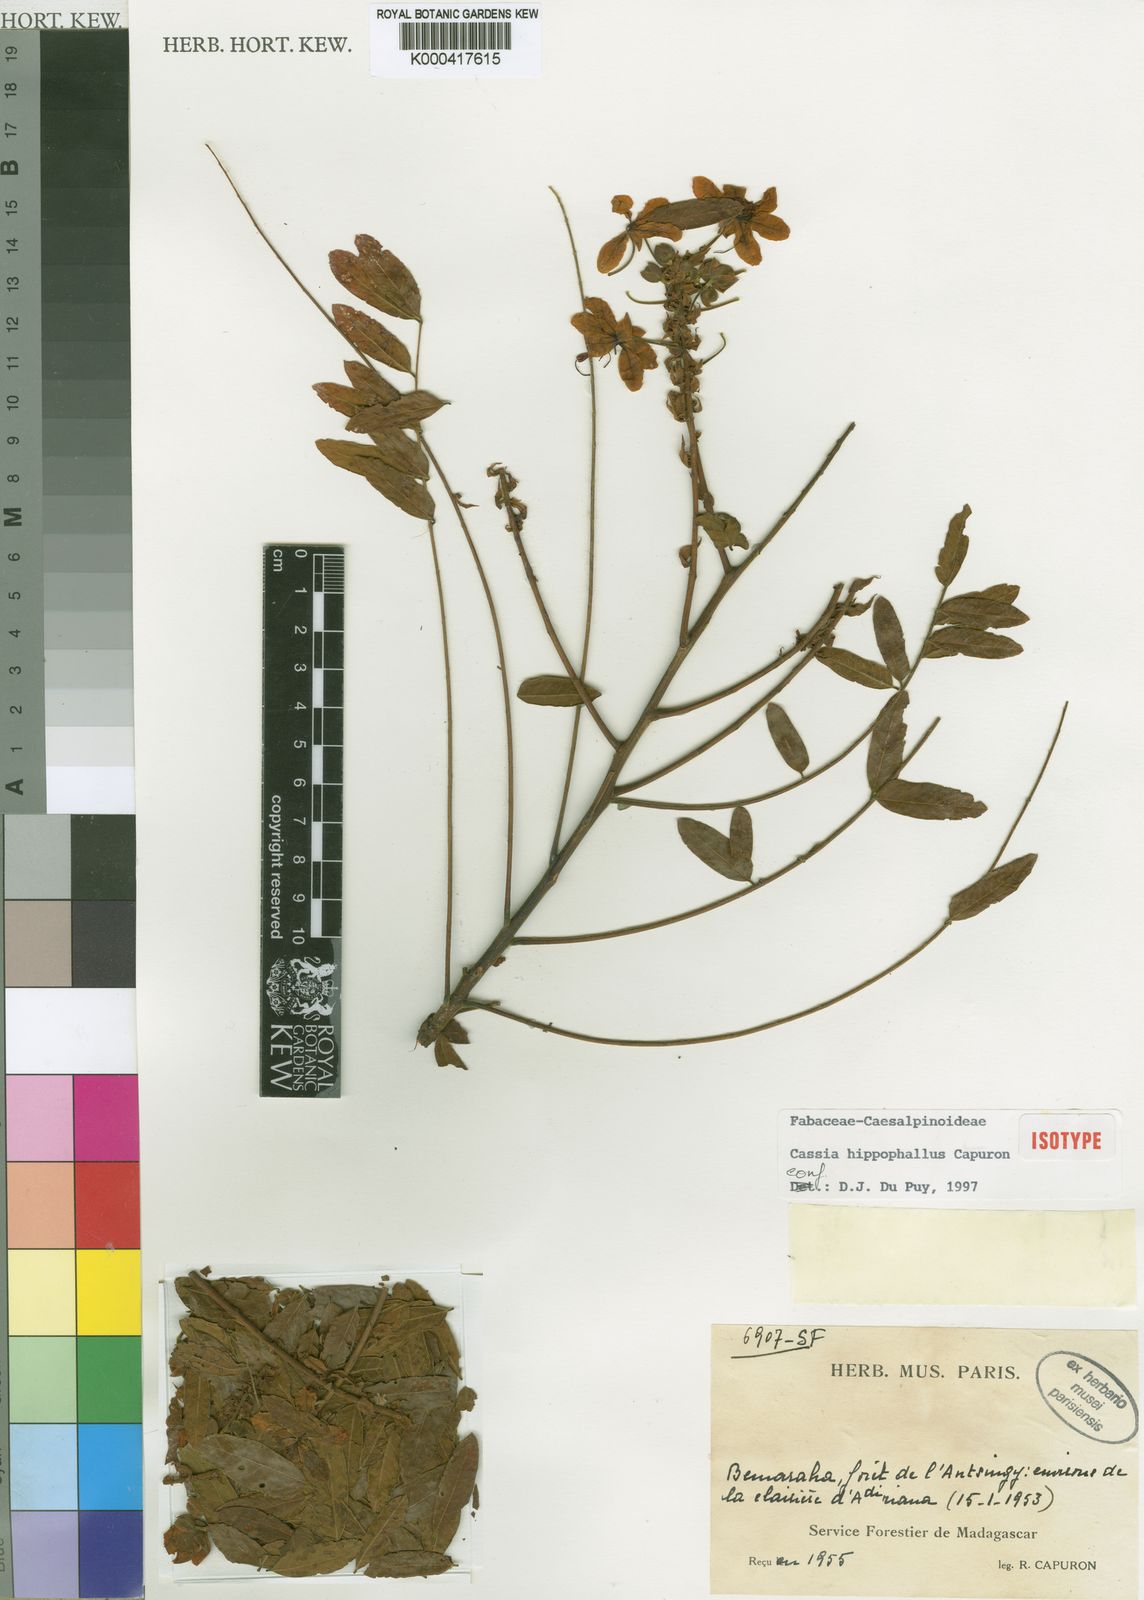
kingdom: Plantae
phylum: Tracheophyta
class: Magnoliopsida
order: Fabales
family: Fabaceae
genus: Cassia
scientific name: Cassia hippophallus
